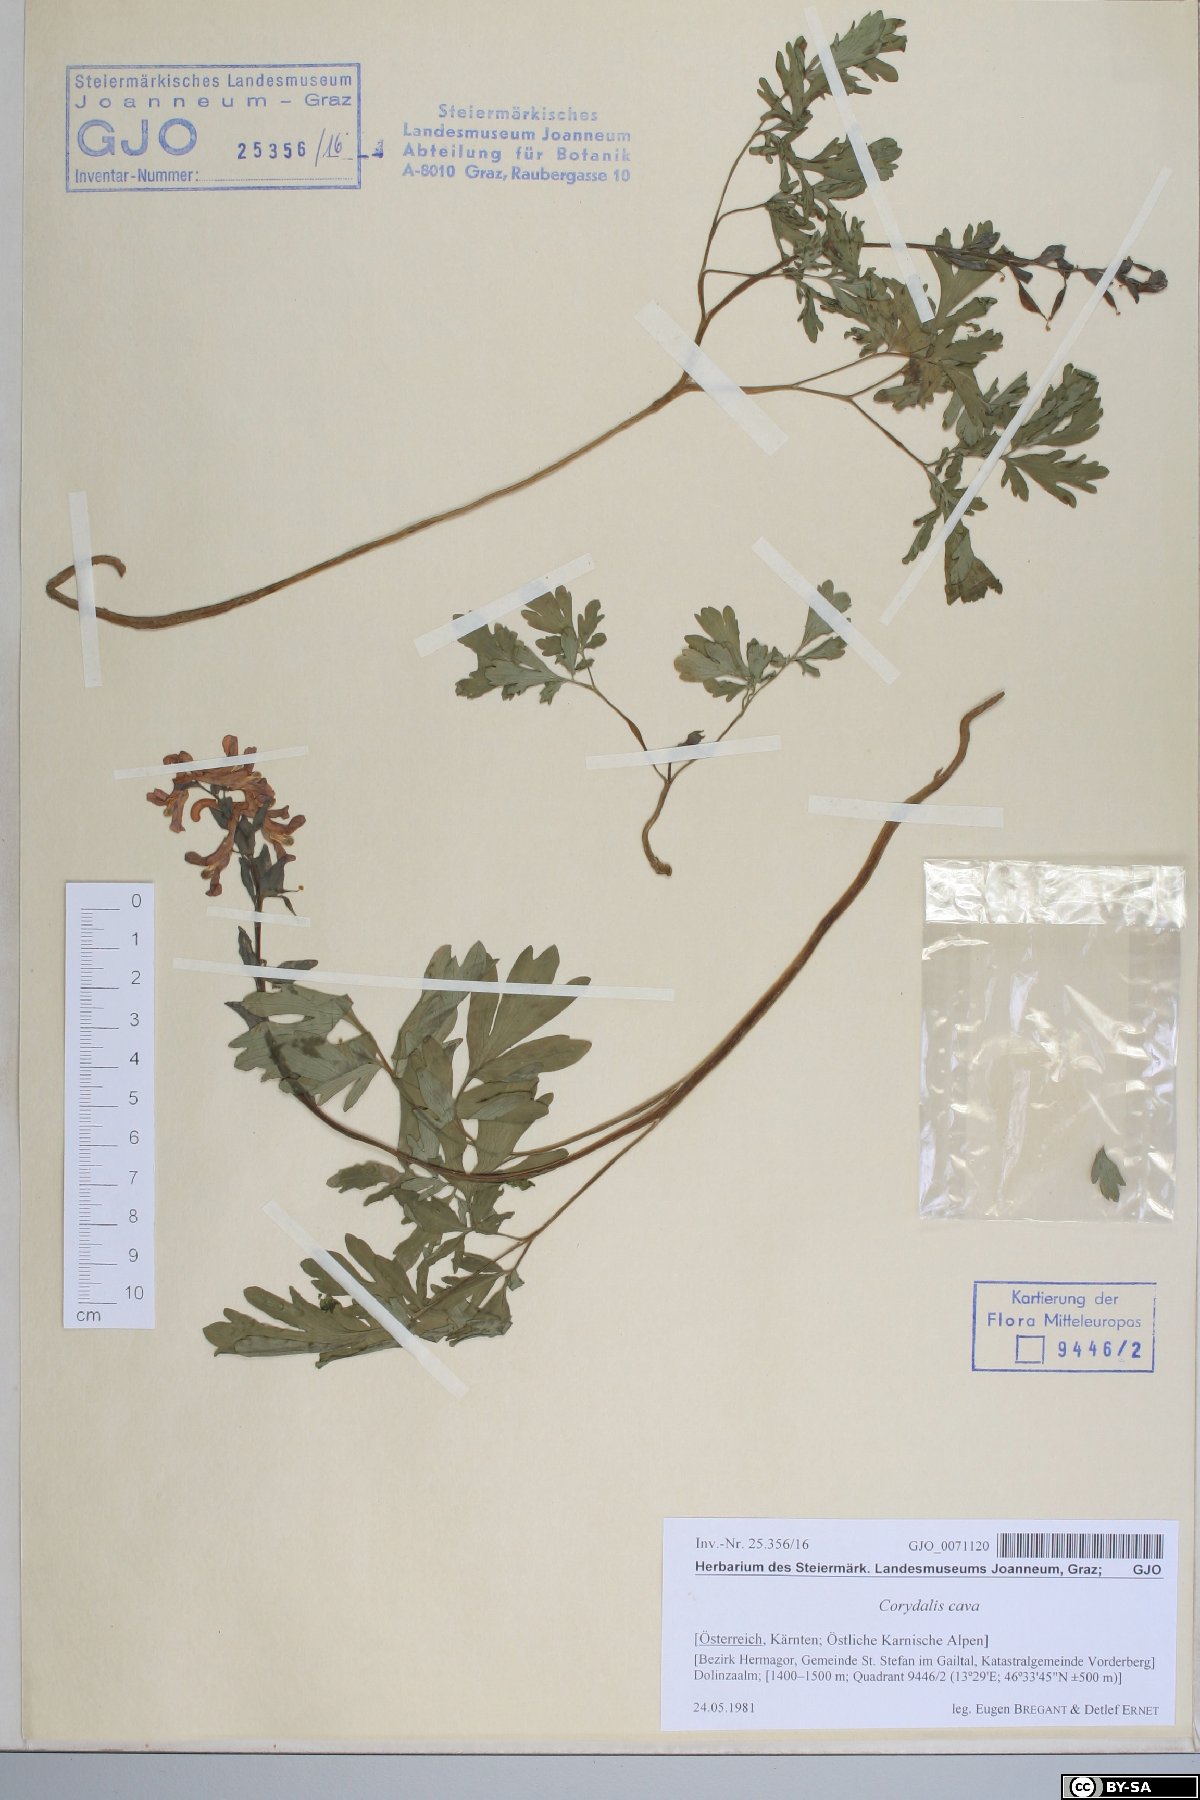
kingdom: Plantae
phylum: Tracheophyta
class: Magnoliopsida
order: Ranunculales
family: Papaveraceae
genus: Corydalis
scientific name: Corydalis cava
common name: Hollowroot
